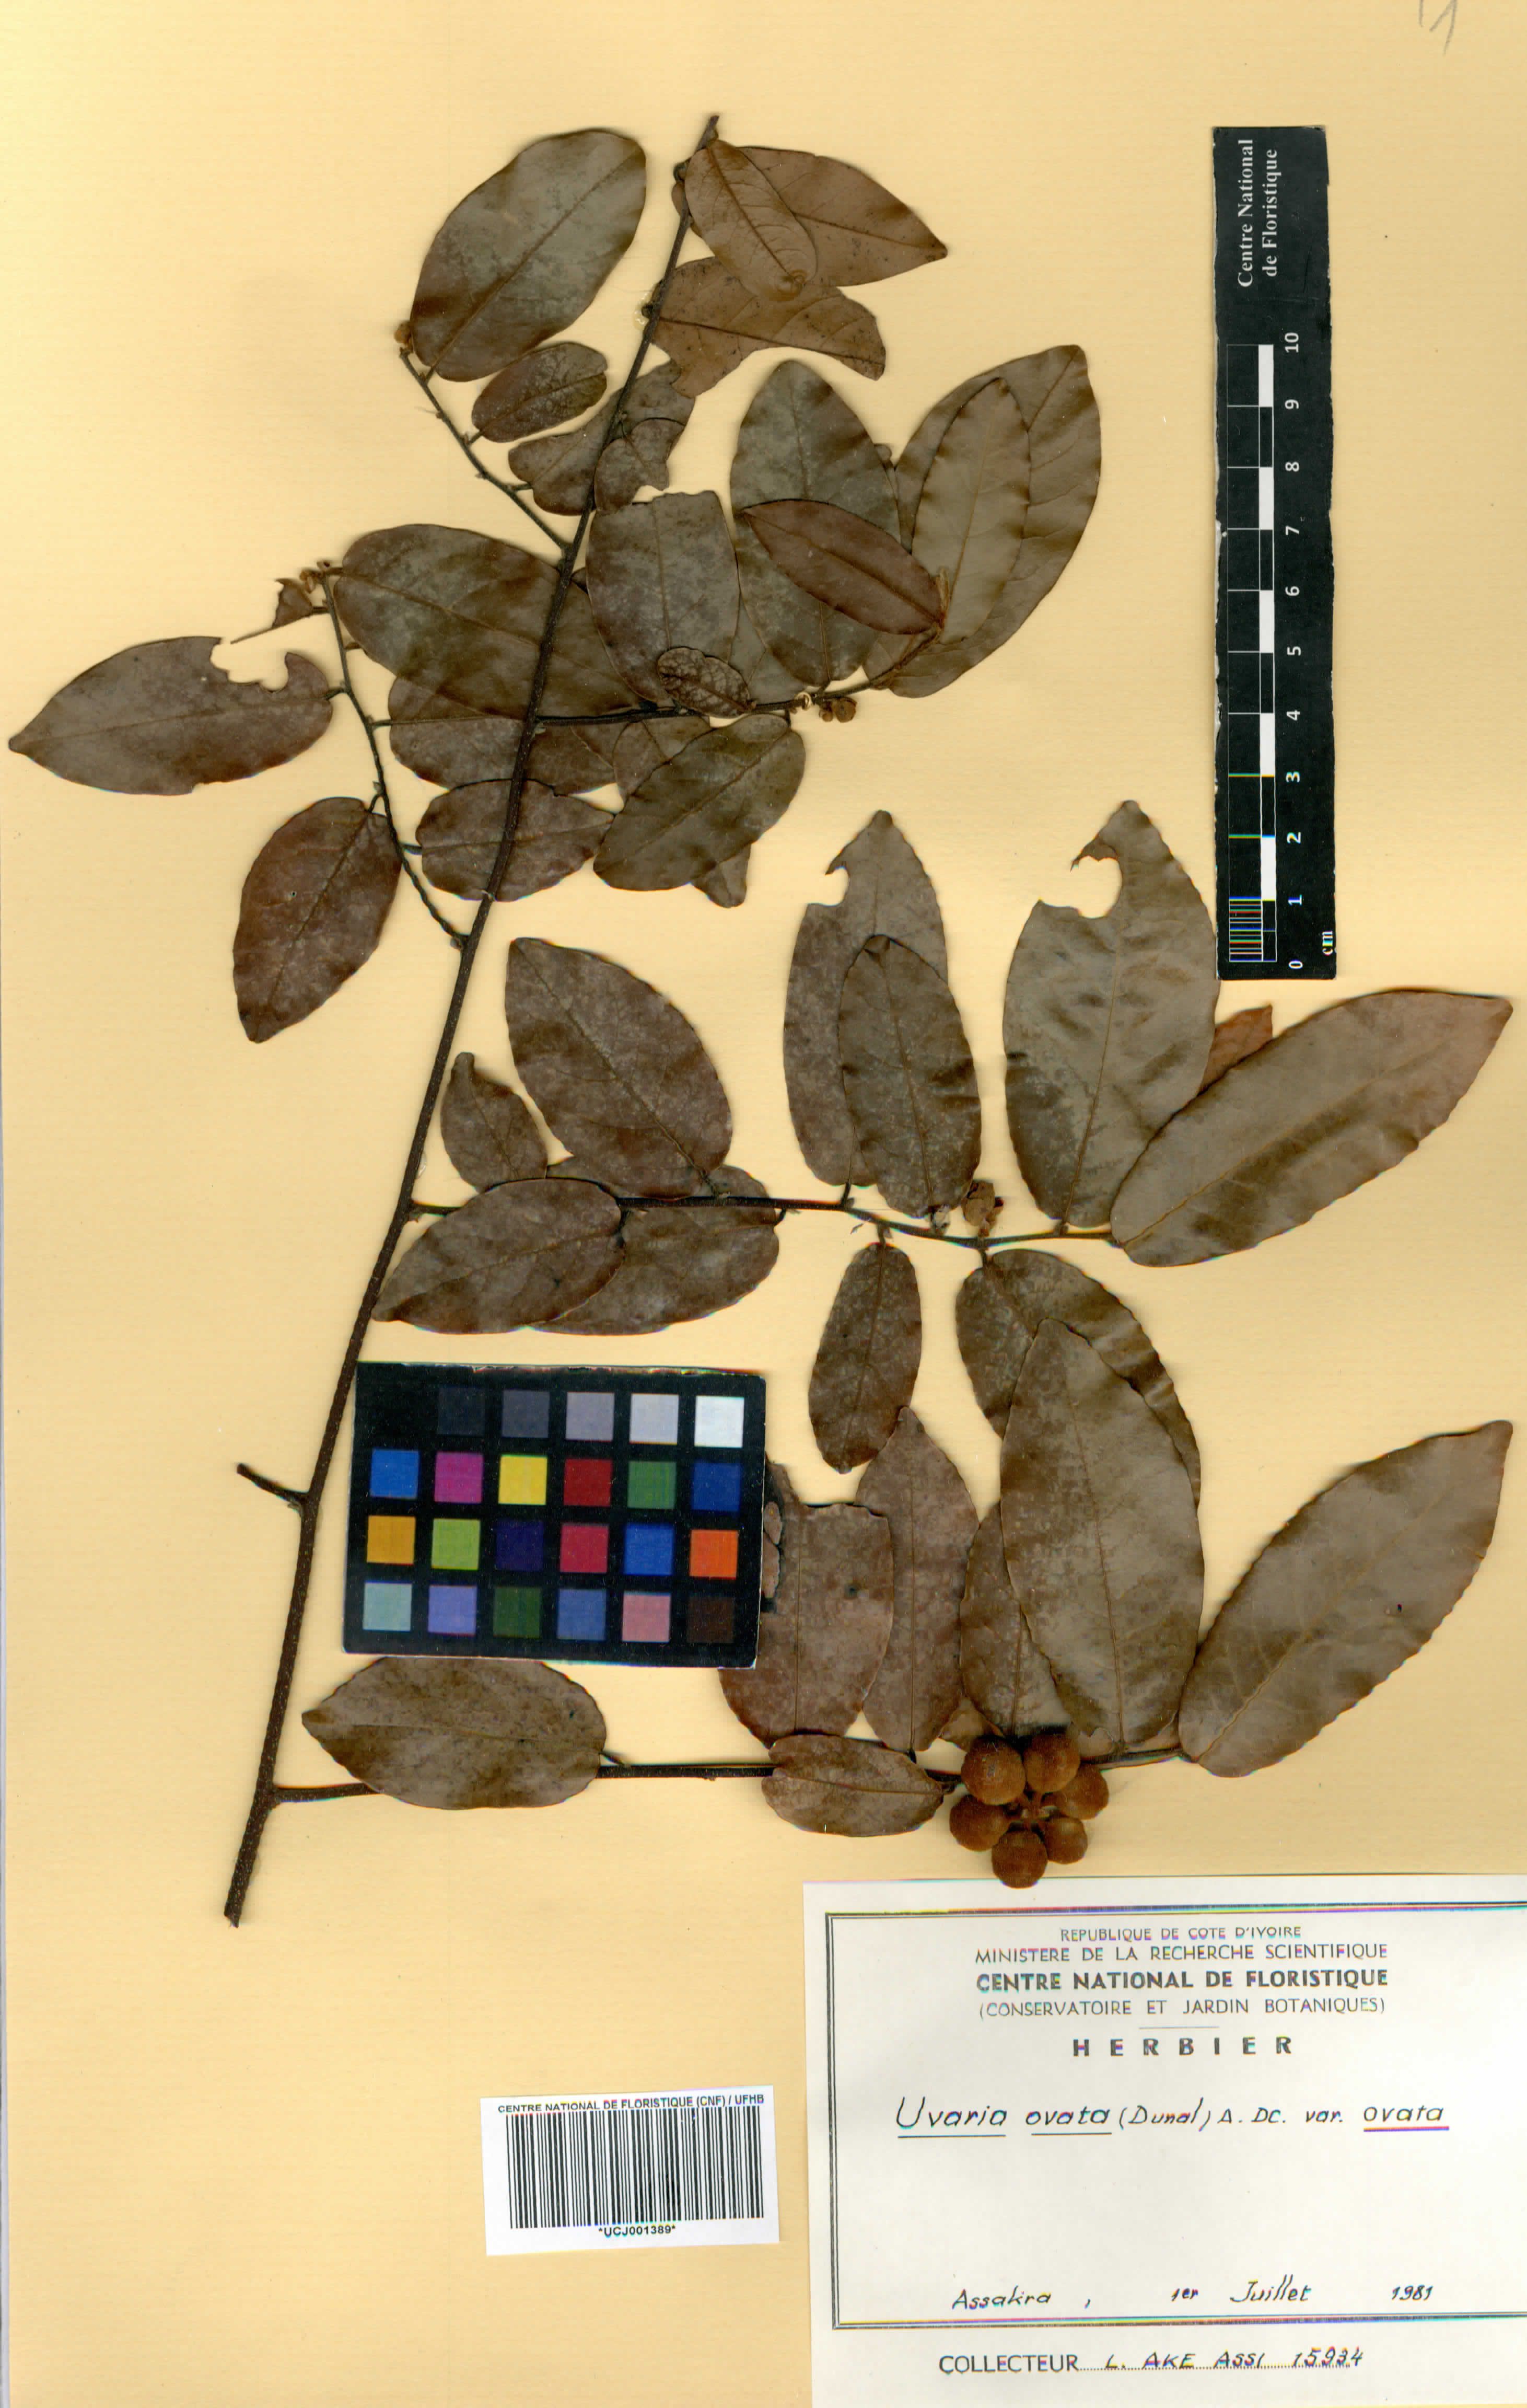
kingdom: Plantae
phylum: Tracheophyta
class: Magnoliopsida
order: Magnoliales
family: Annonaceae
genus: Uvaria
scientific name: Uvaria ovata
